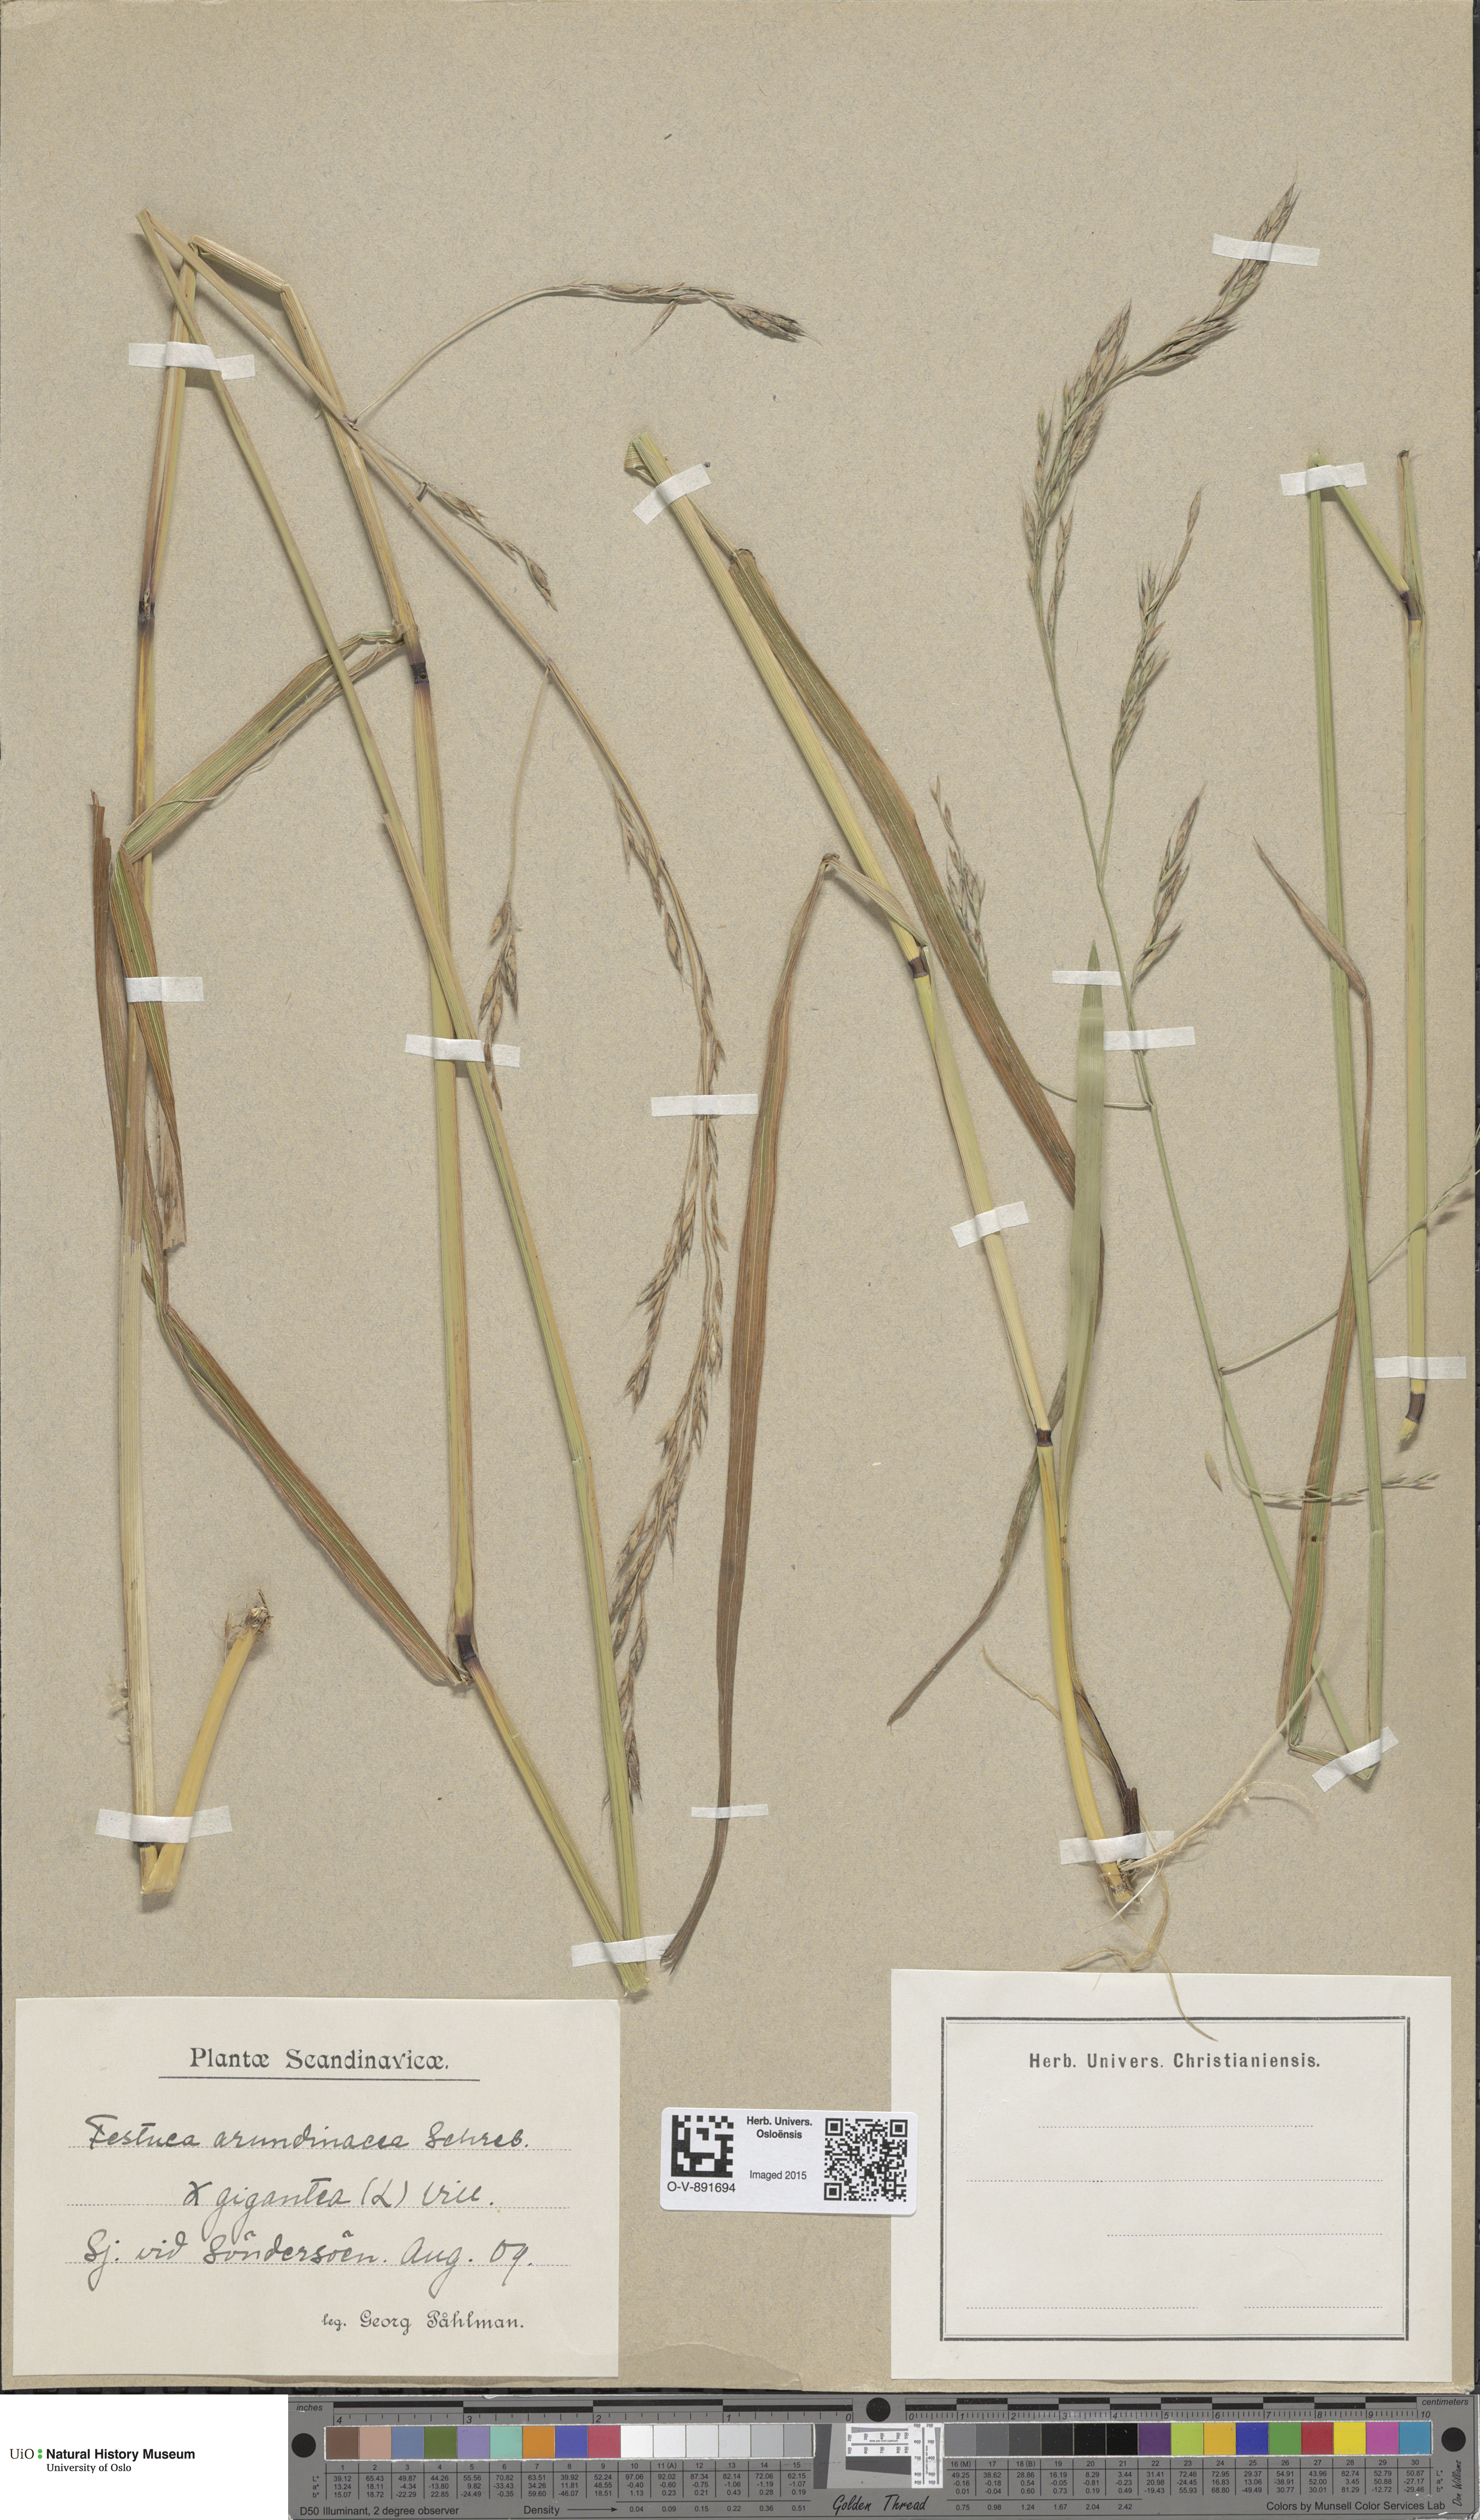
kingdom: Plantae
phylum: Tracheophyta
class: Liliopsida
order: Poales
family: Poaceae
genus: Lolium
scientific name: Lolium
